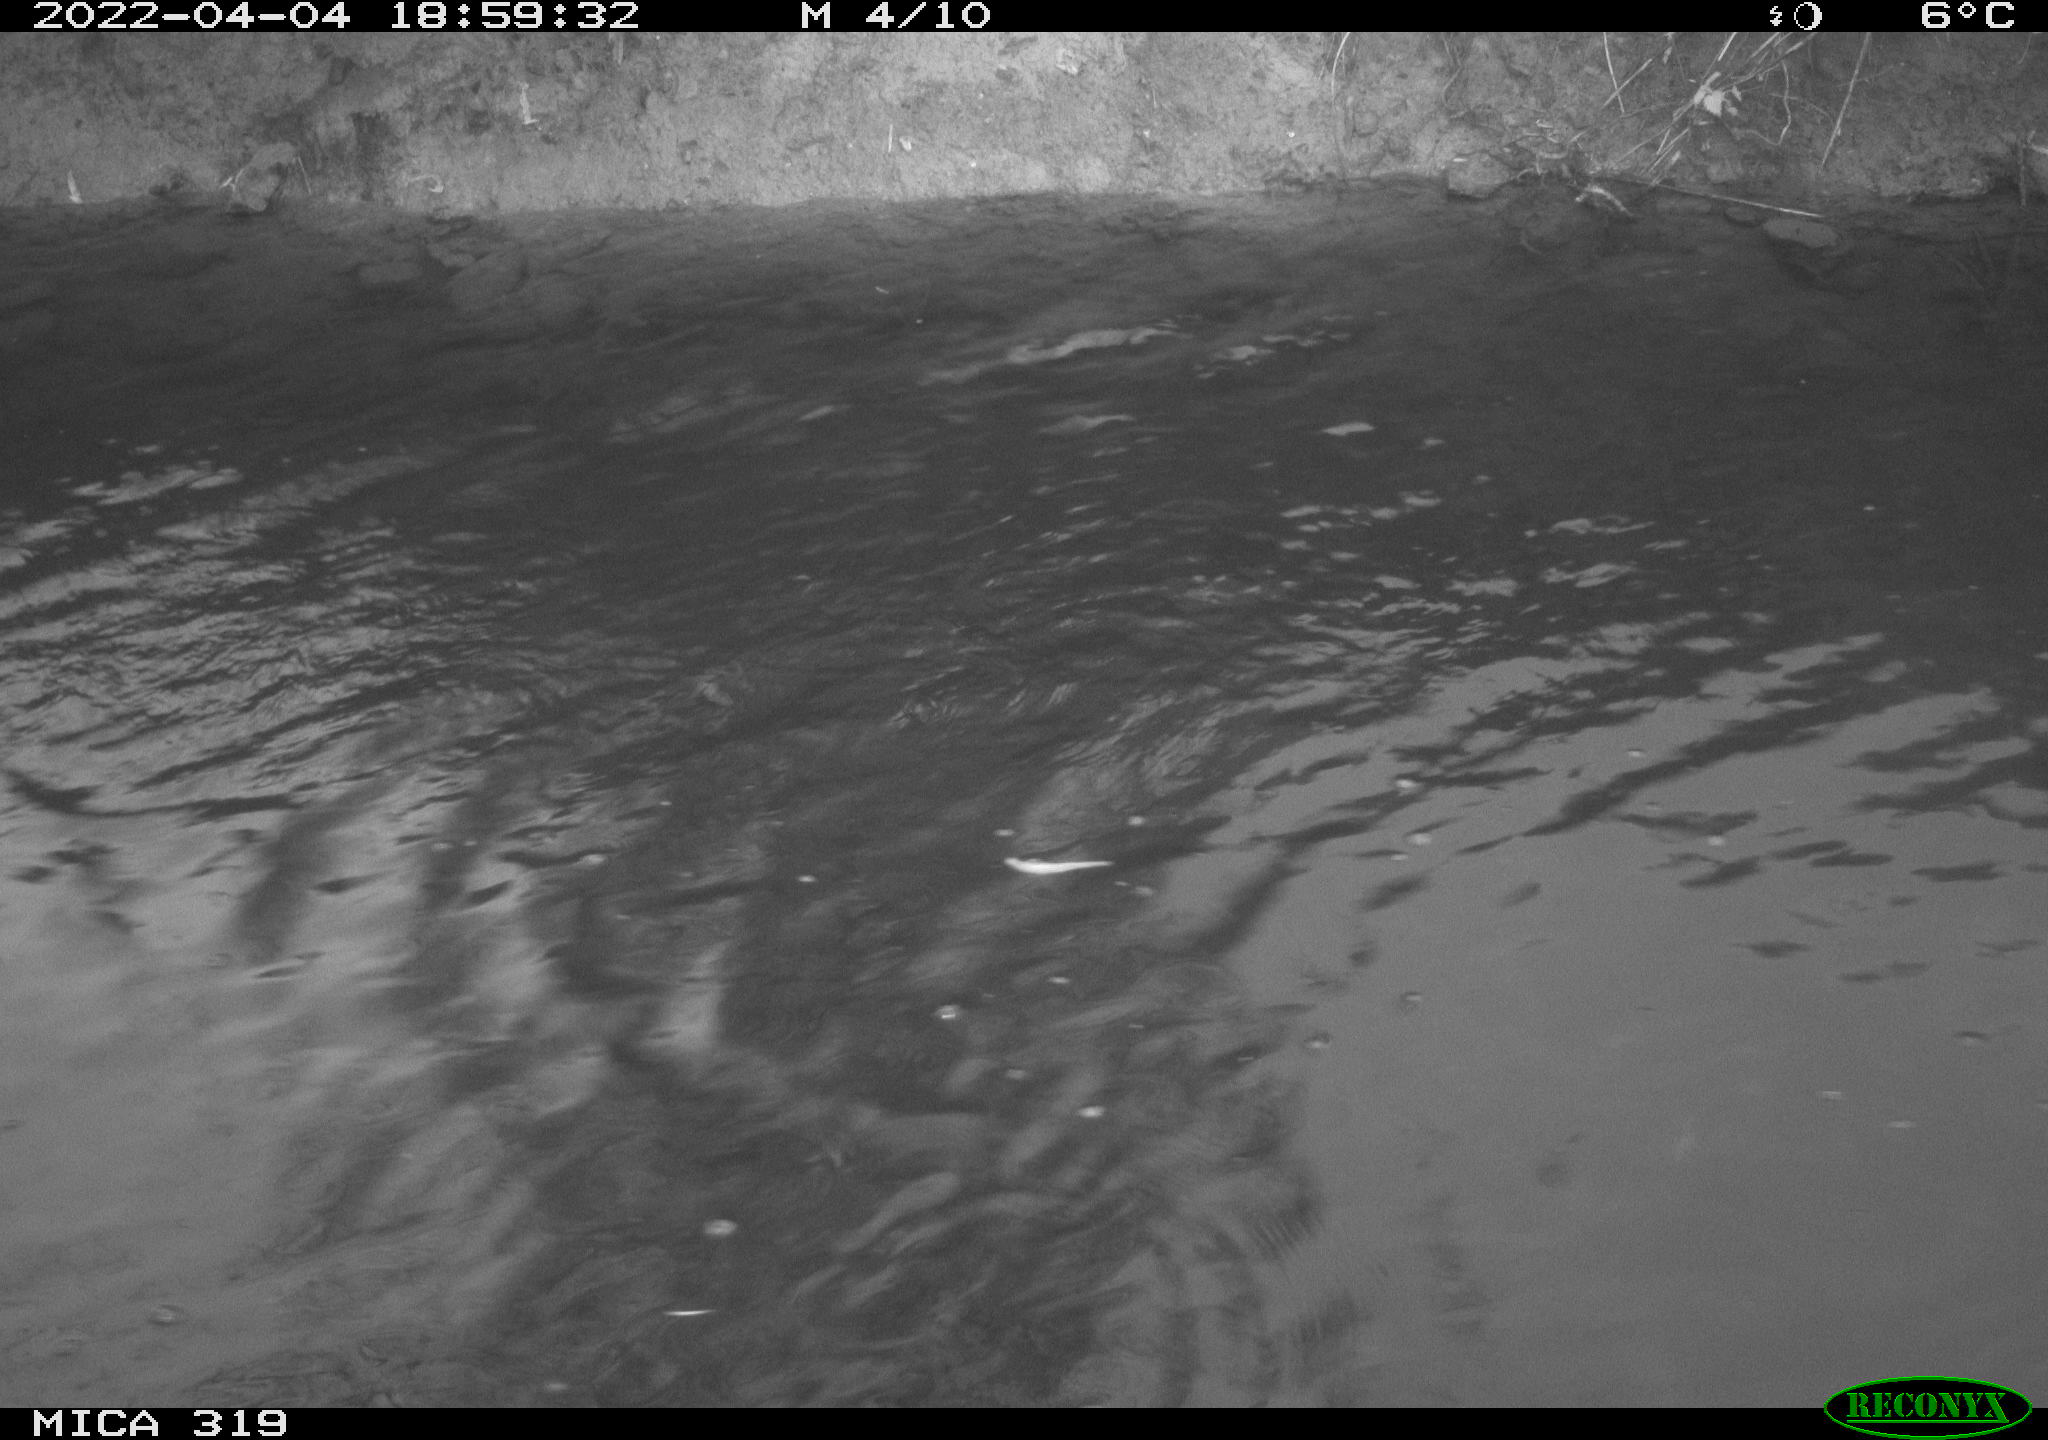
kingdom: Animalia
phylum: Chordata
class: Aves
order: Anseriformes
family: Anatidae
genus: Anas
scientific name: Anas platyrhynchos
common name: Mallard
